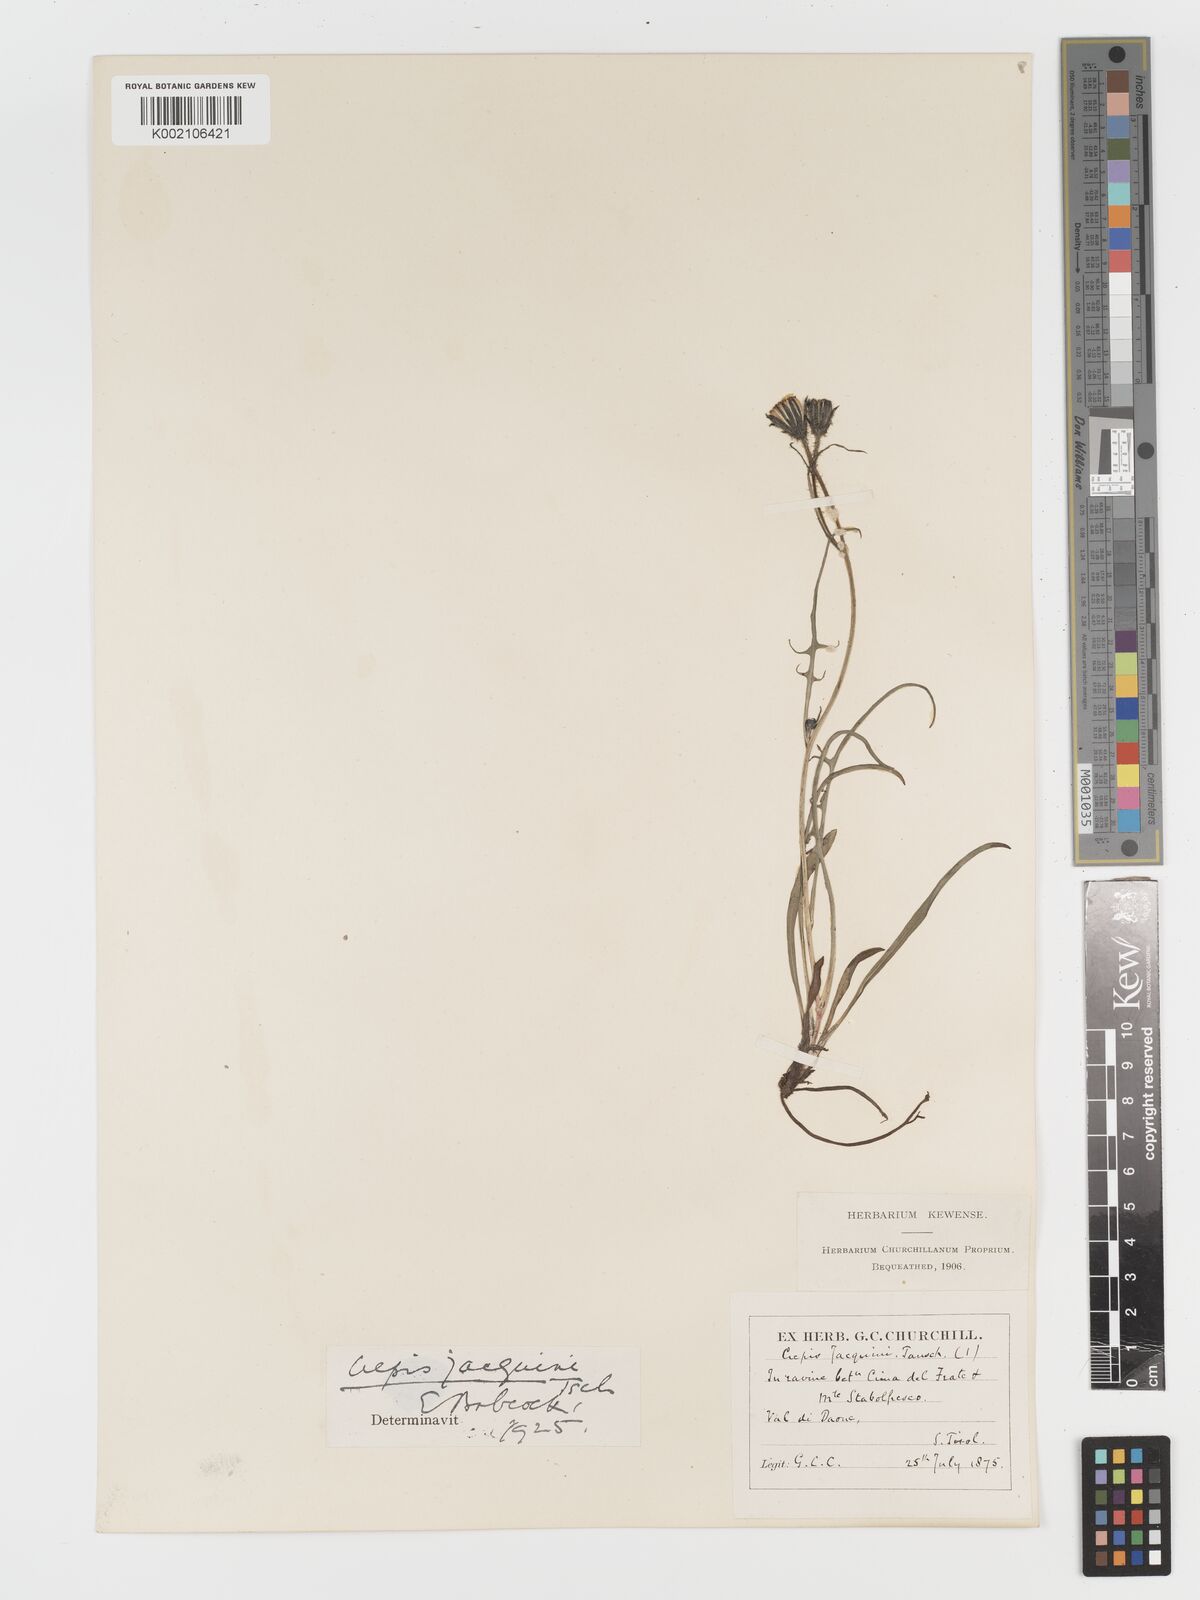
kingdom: Plantae
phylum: Tracheophyta
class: Magnoliopsida
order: Asterales
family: Asteraceae
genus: Crepis
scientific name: Crepis jacquinii
